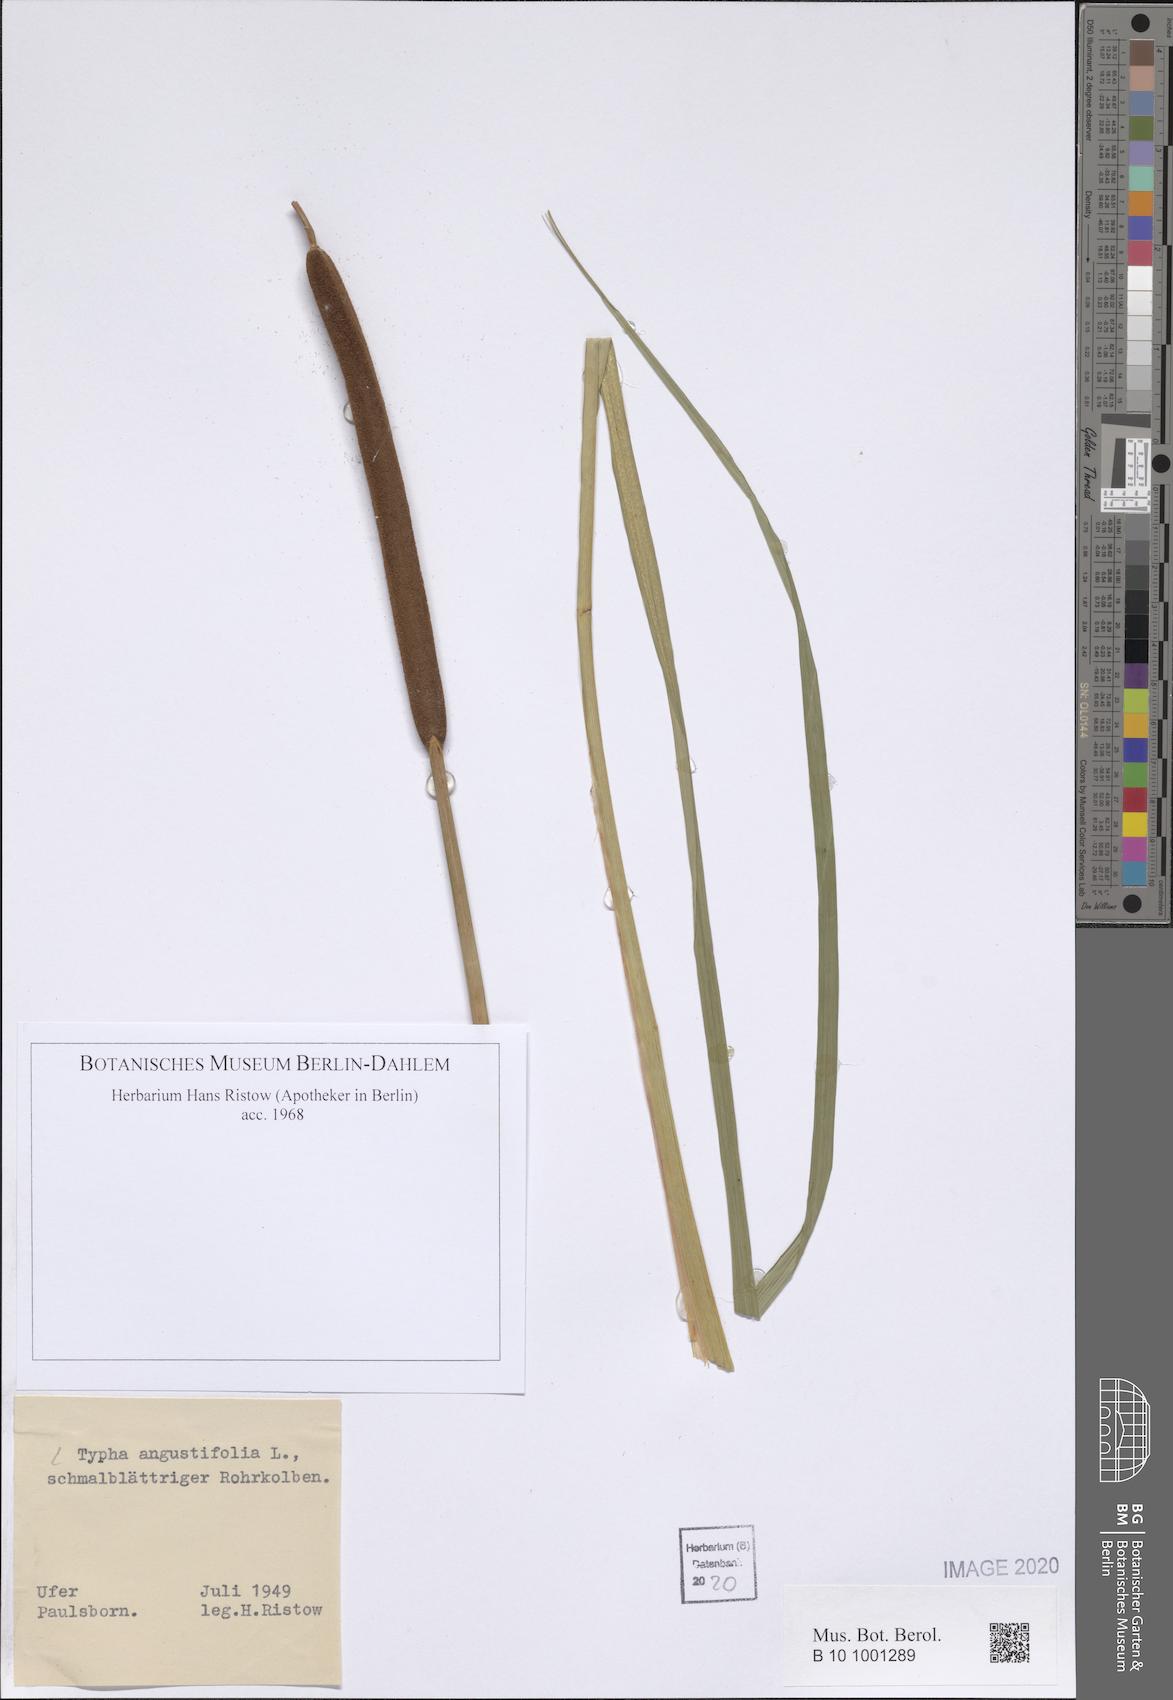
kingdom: Plantae
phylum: Tracheophyta
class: Liliopsida
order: Poales
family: Typhaceae
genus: Typha
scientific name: Typha angustifolia
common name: Lesser bulrush
